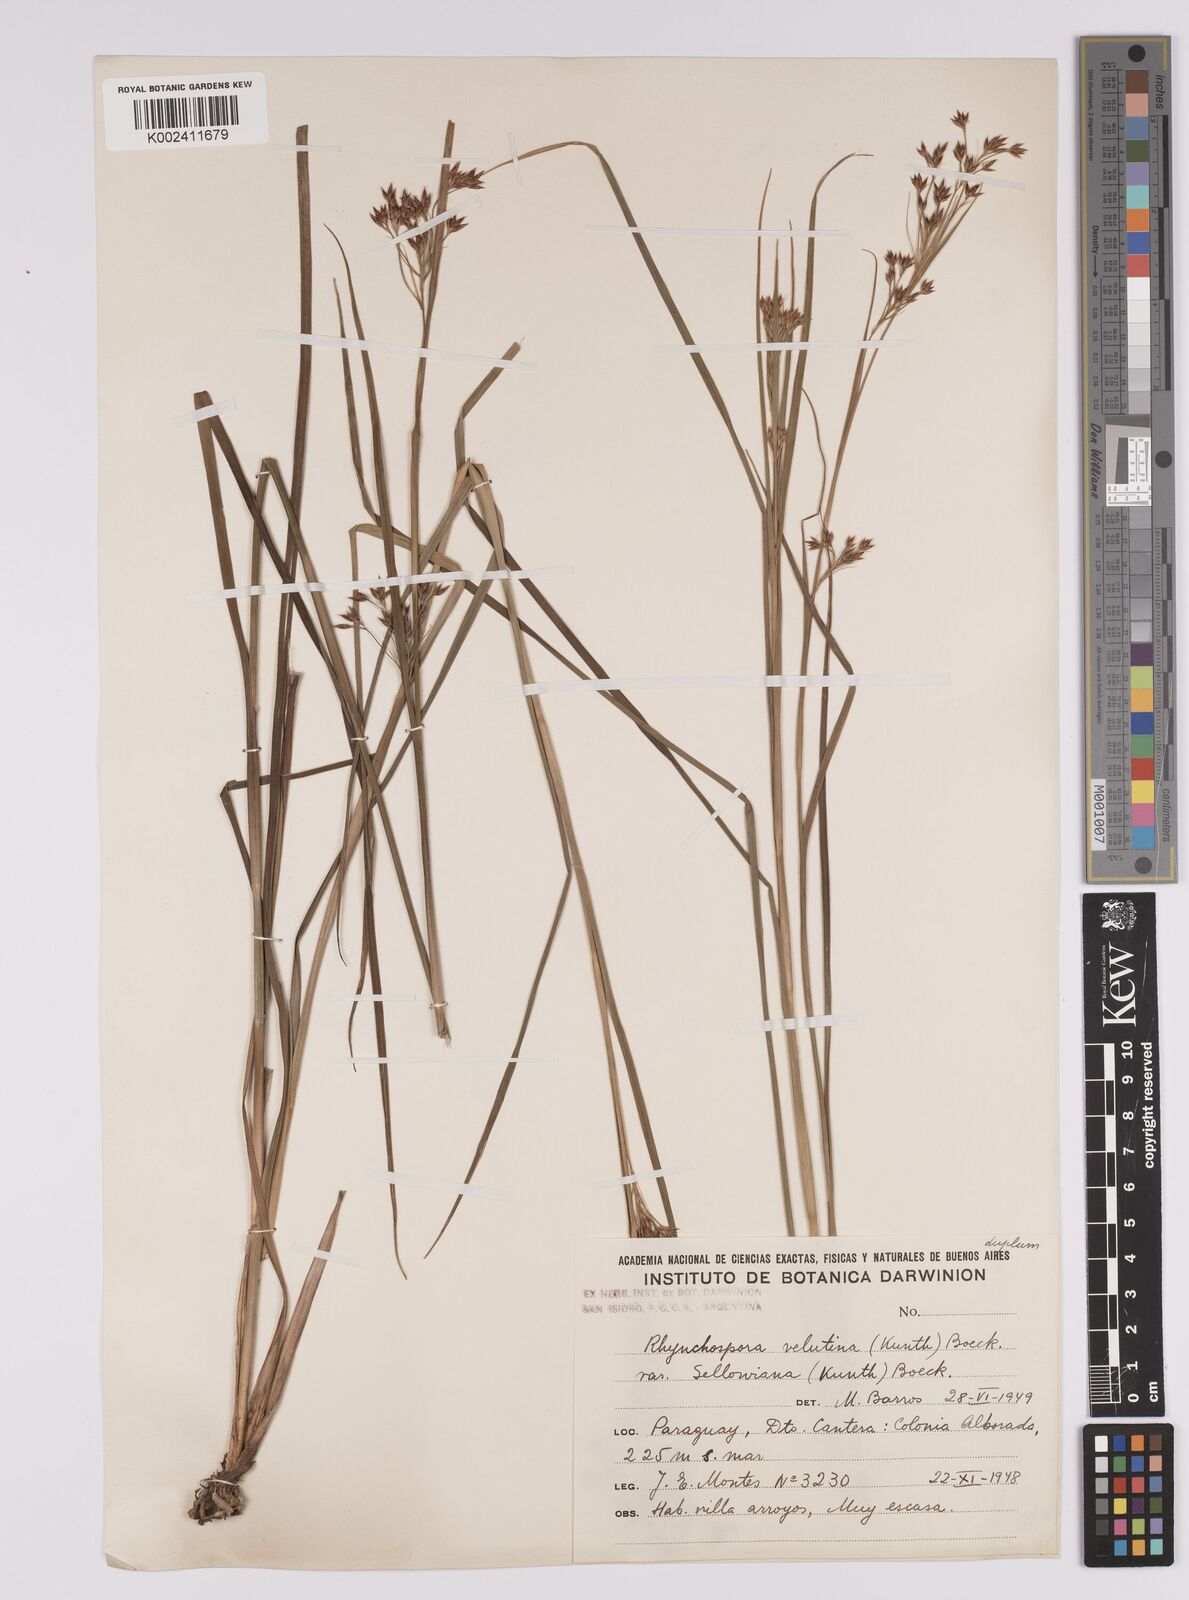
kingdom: Plantae
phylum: Tracheophyta
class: Liliopsida
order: Poales
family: Cyperaceae
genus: Rhynchospora
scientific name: Rhynchospora velutina
